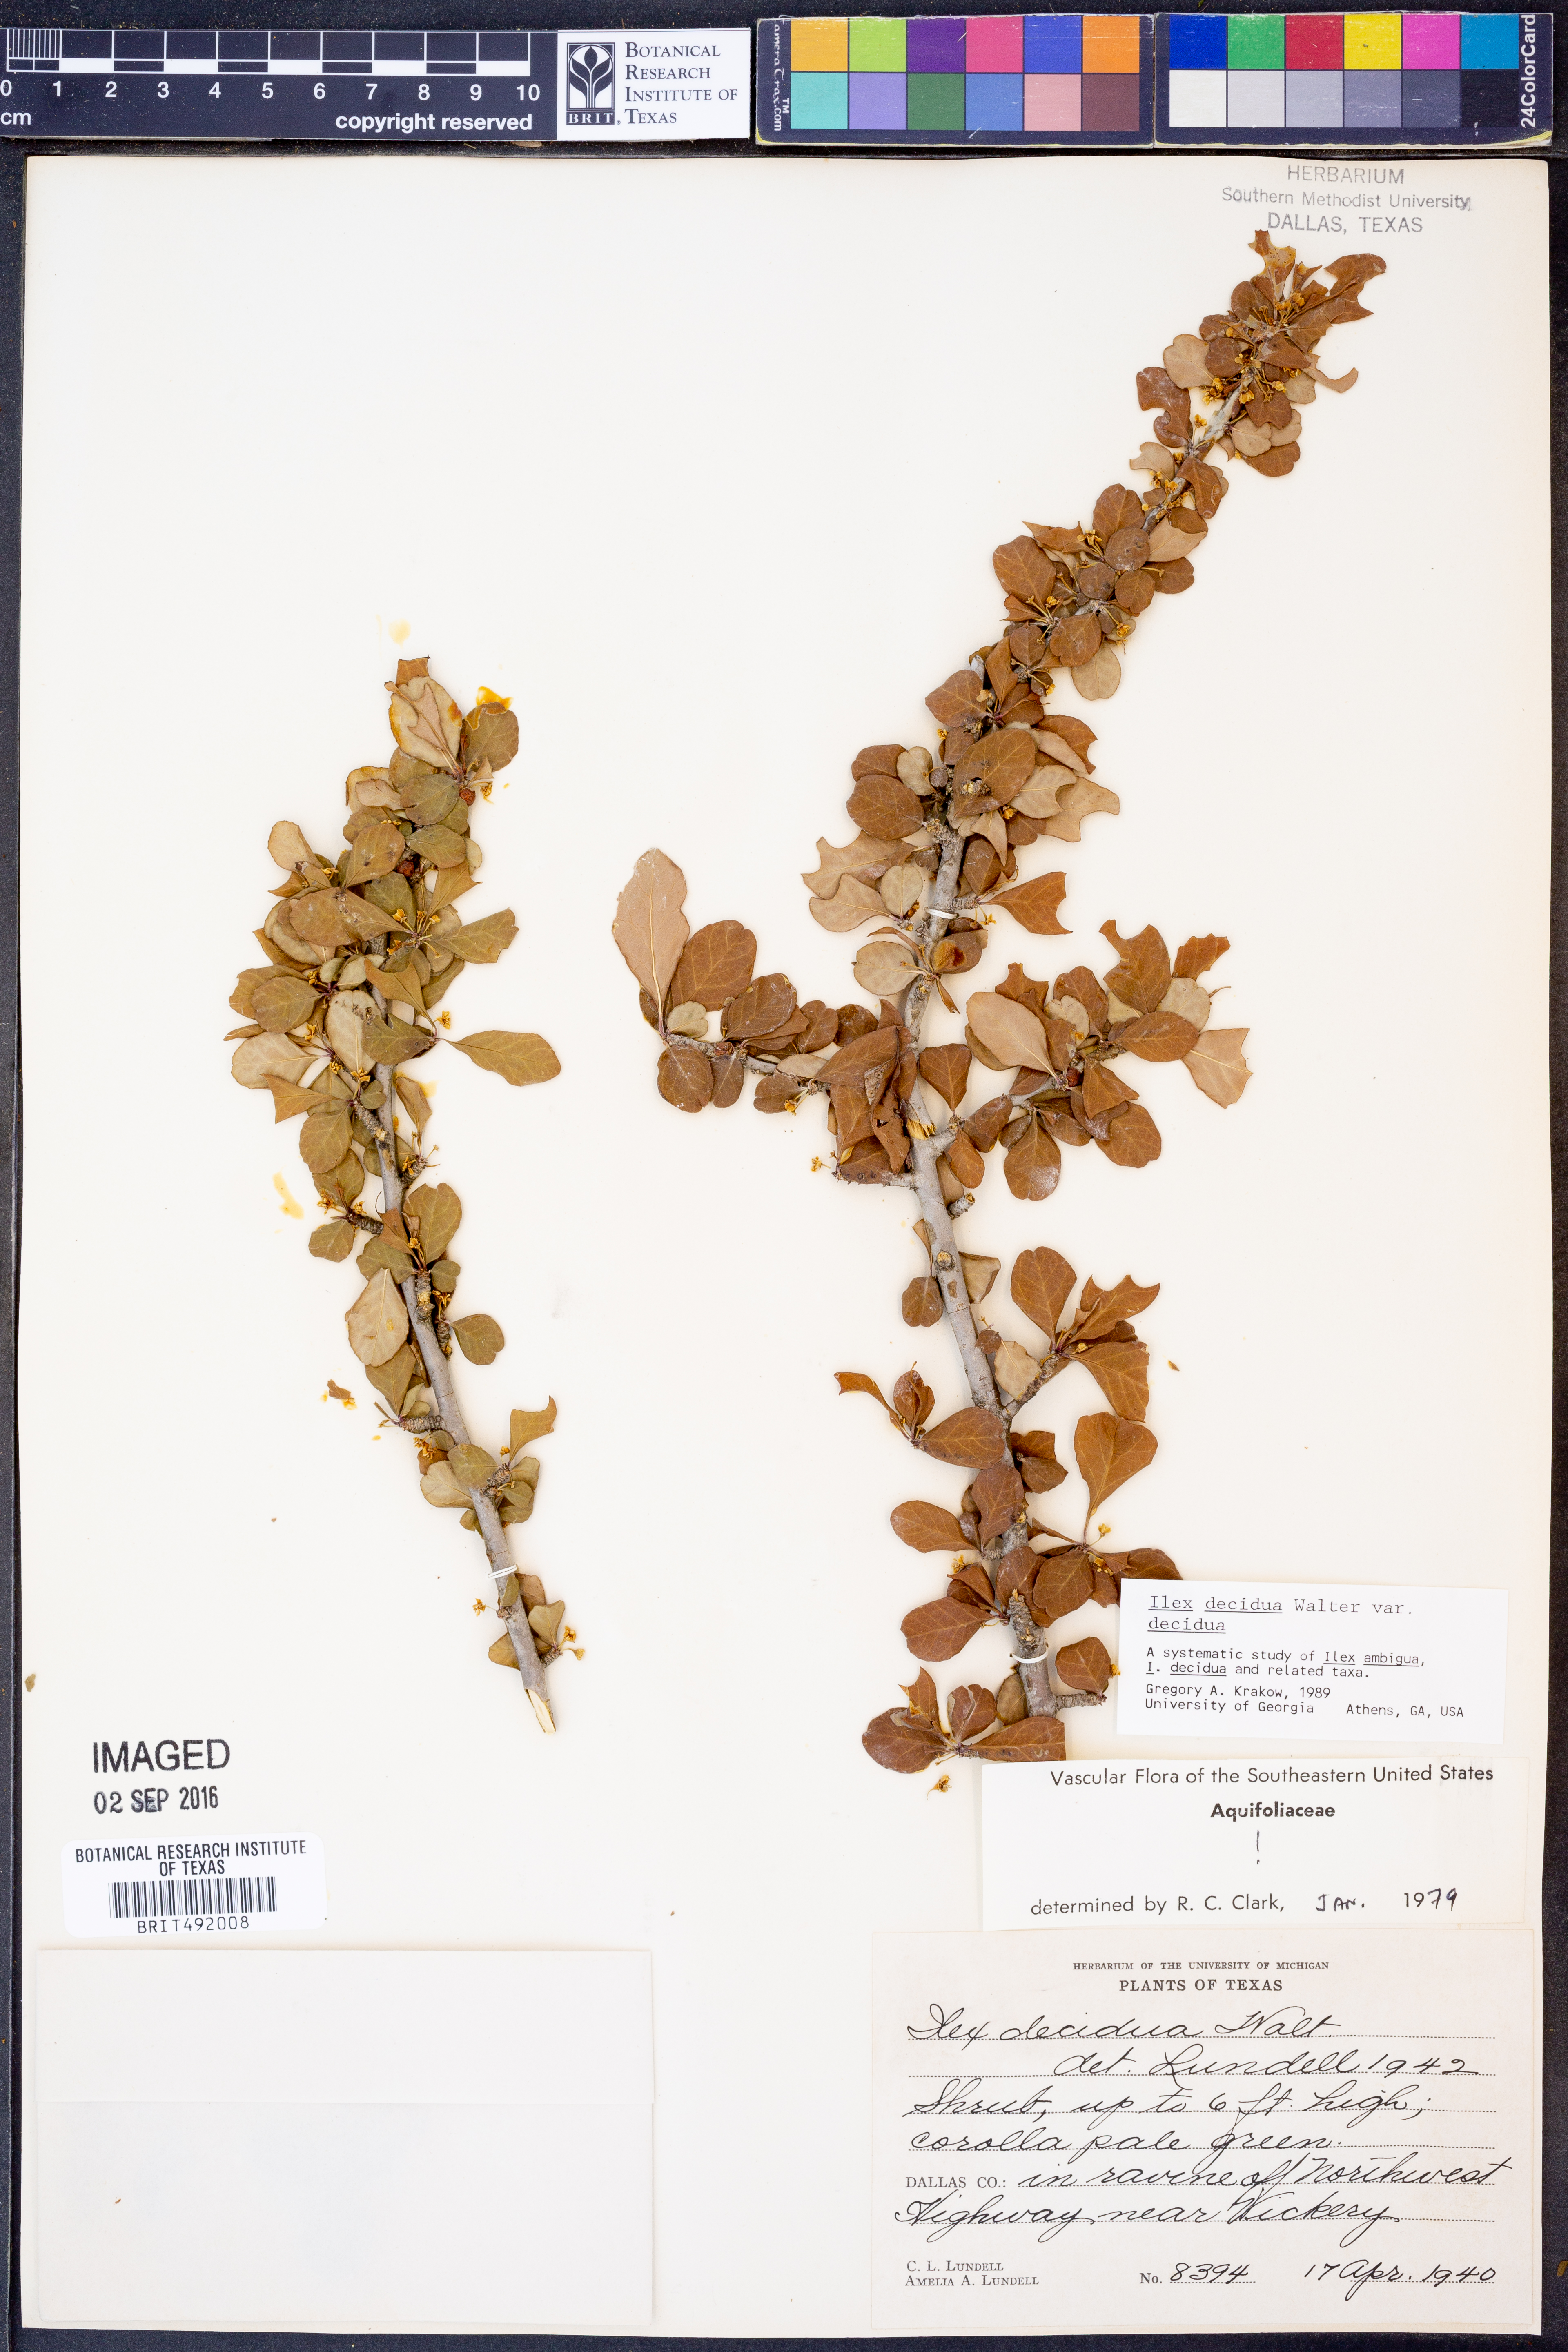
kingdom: Plantae
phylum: Tracheophyta
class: Magnoliopsida
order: Aquifoliales
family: Aquifoliaceae
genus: Ilex
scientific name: Ilex decidua
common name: Possum-haw
